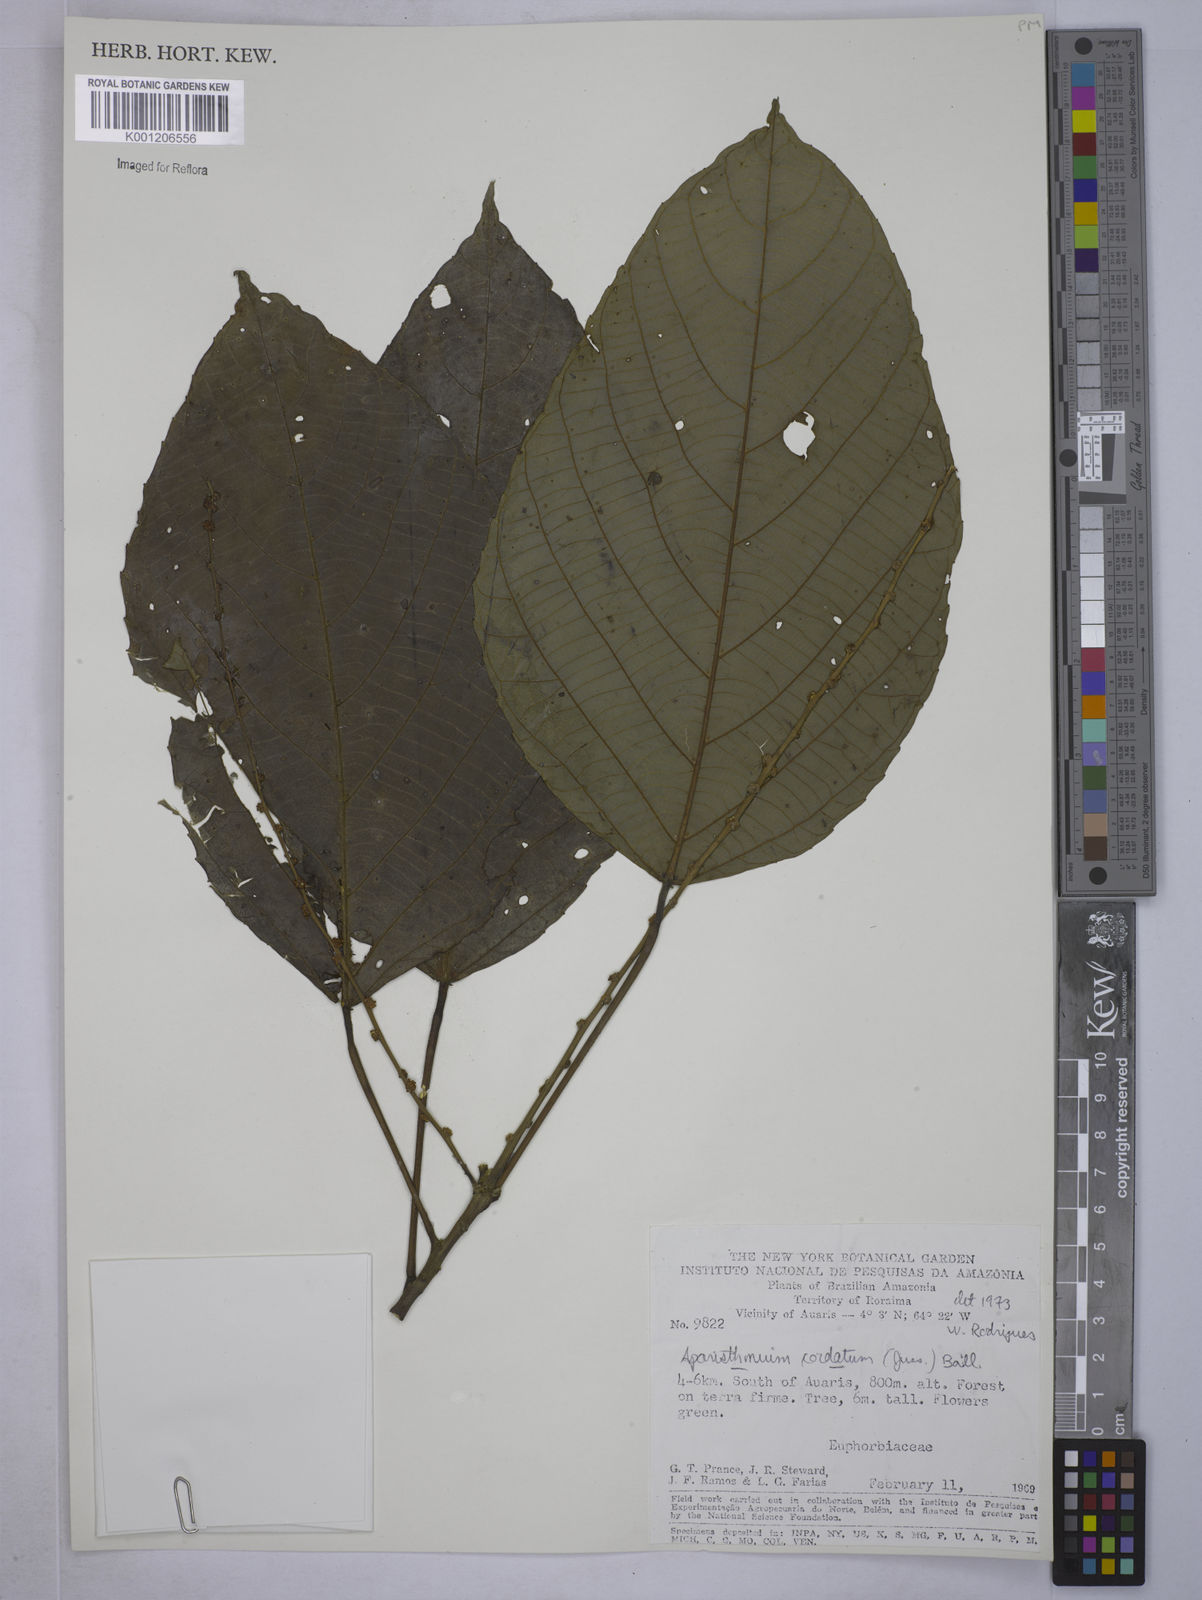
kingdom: Plantae
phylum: Tracheophyta
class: Magnoliopsida
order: Malpighiales
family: Euphorbiaceae
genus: Aparisthmium
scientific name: Aparisthmium cordatum
